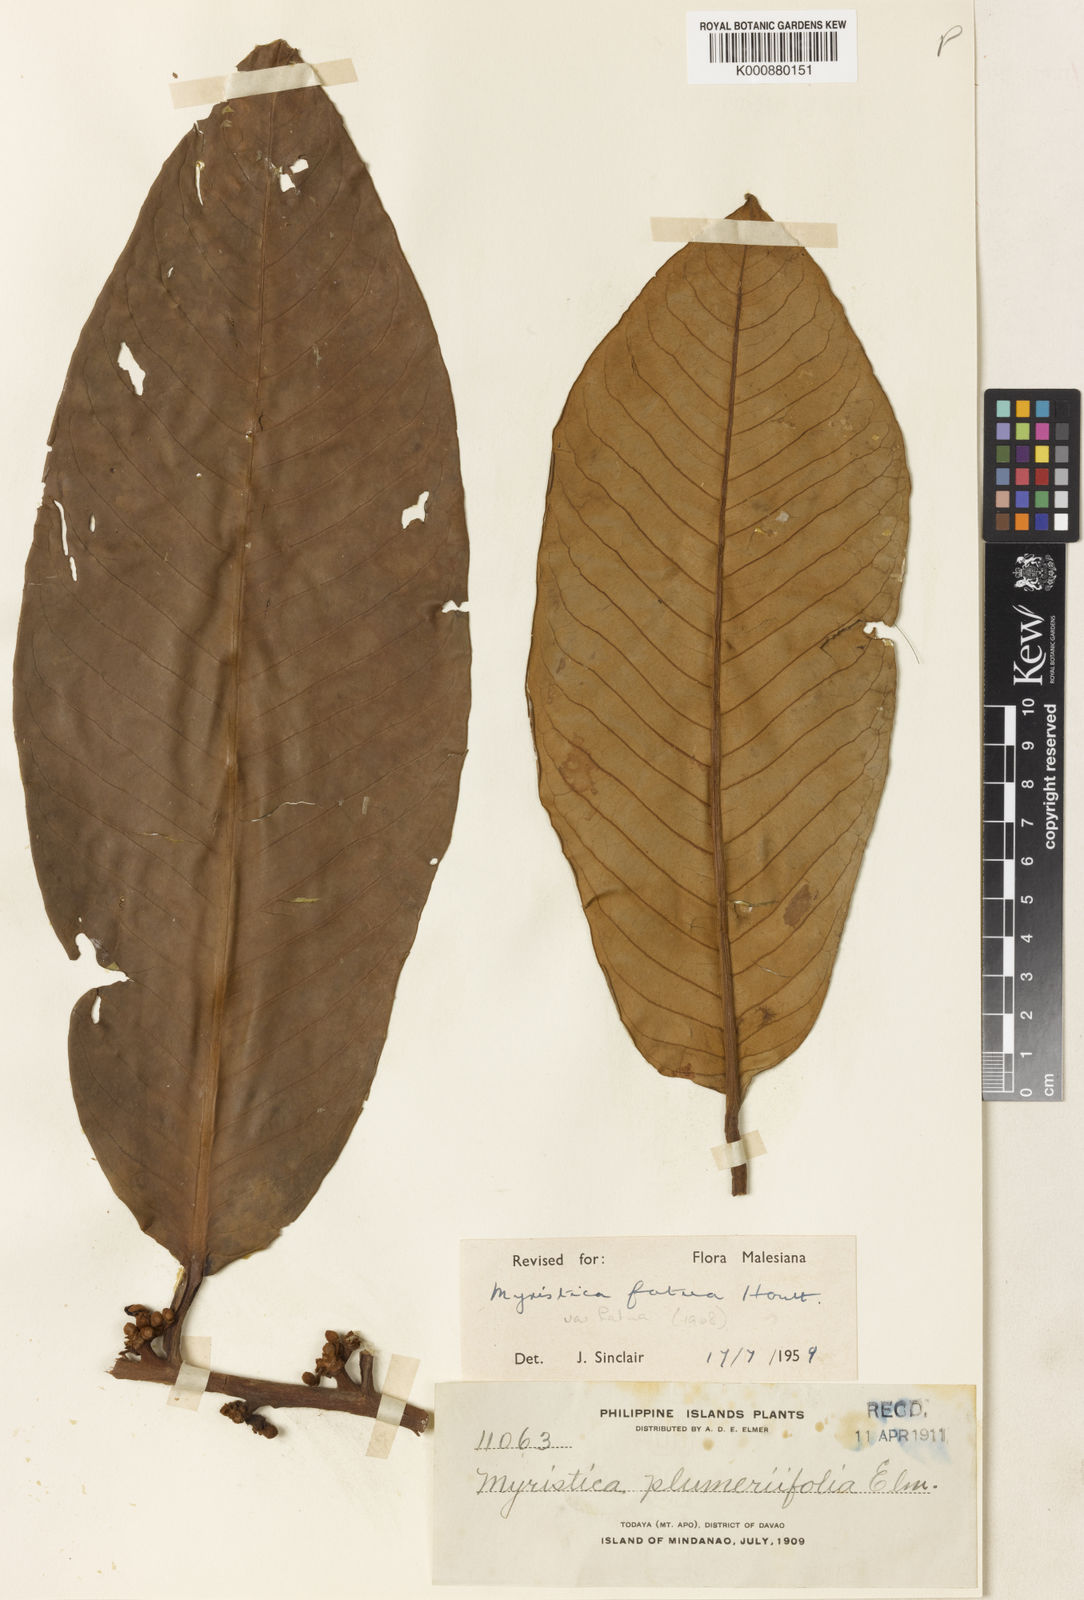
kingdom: Plantae
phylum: Tracheophyta
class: Magnoliopsida
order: Magnoliales
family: Myristicaceae
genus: Myristica
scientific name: Myristica fatua
